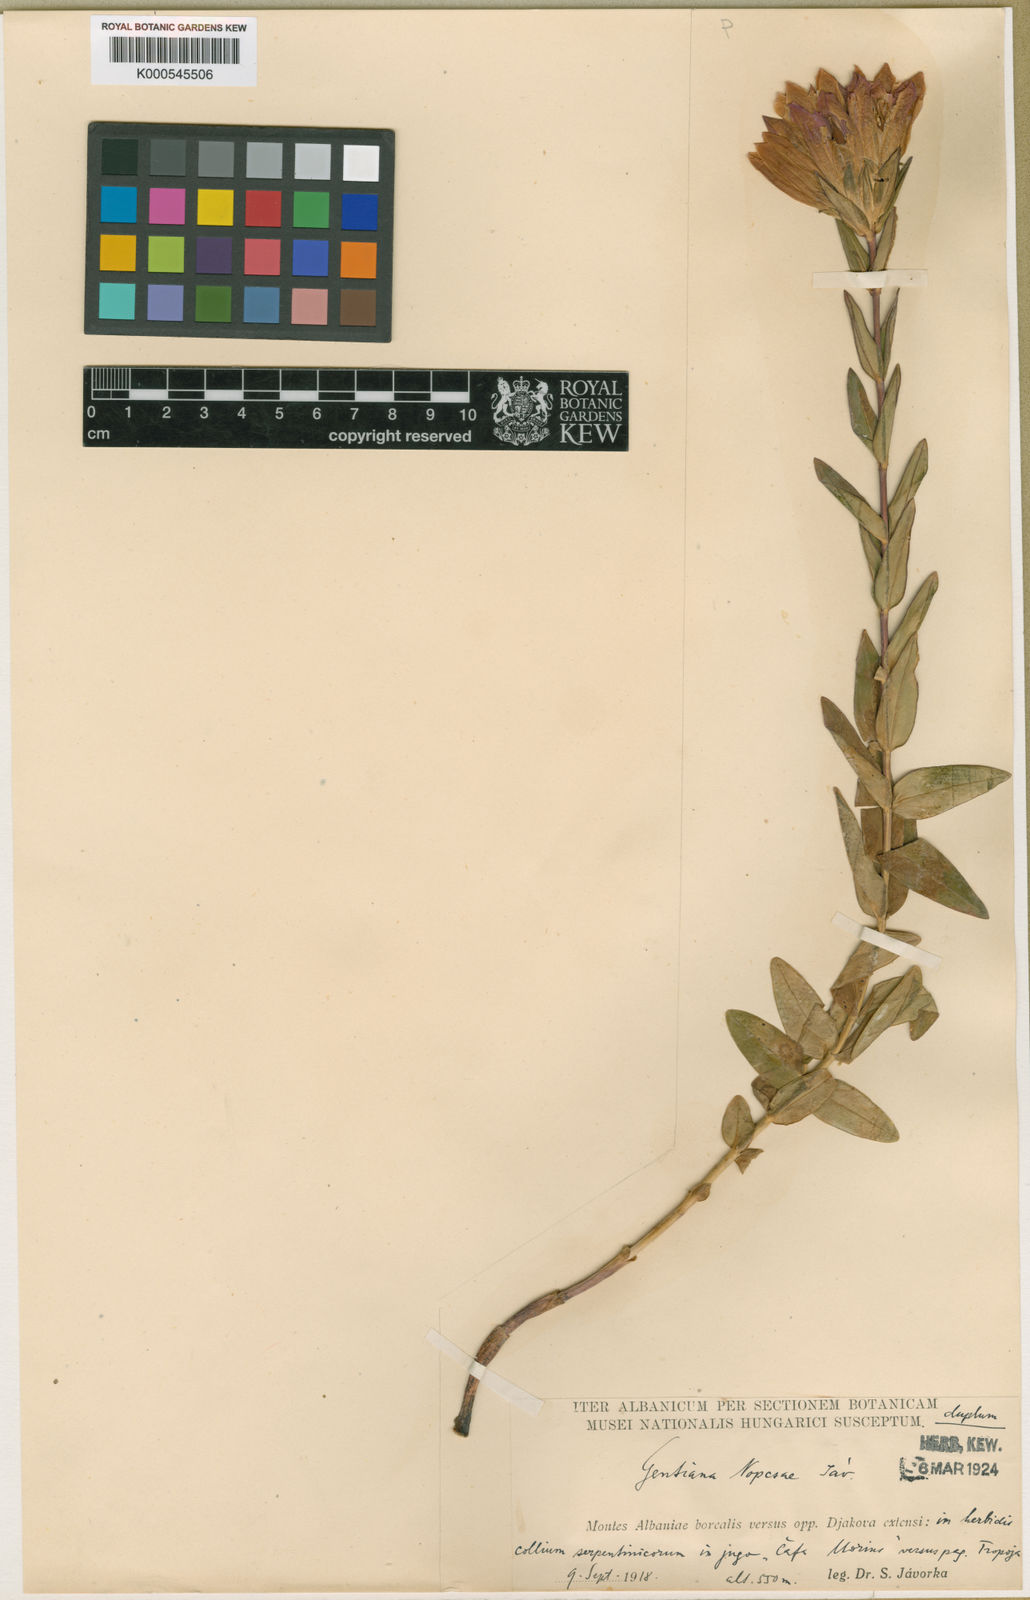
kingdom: Plantae
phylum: Tracheophyta
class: Magnoliopsida
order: Gentianales
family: Gentianaceae
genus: Gentiana
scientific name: Gentiana pneumonanthe
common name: Marsh gentian
